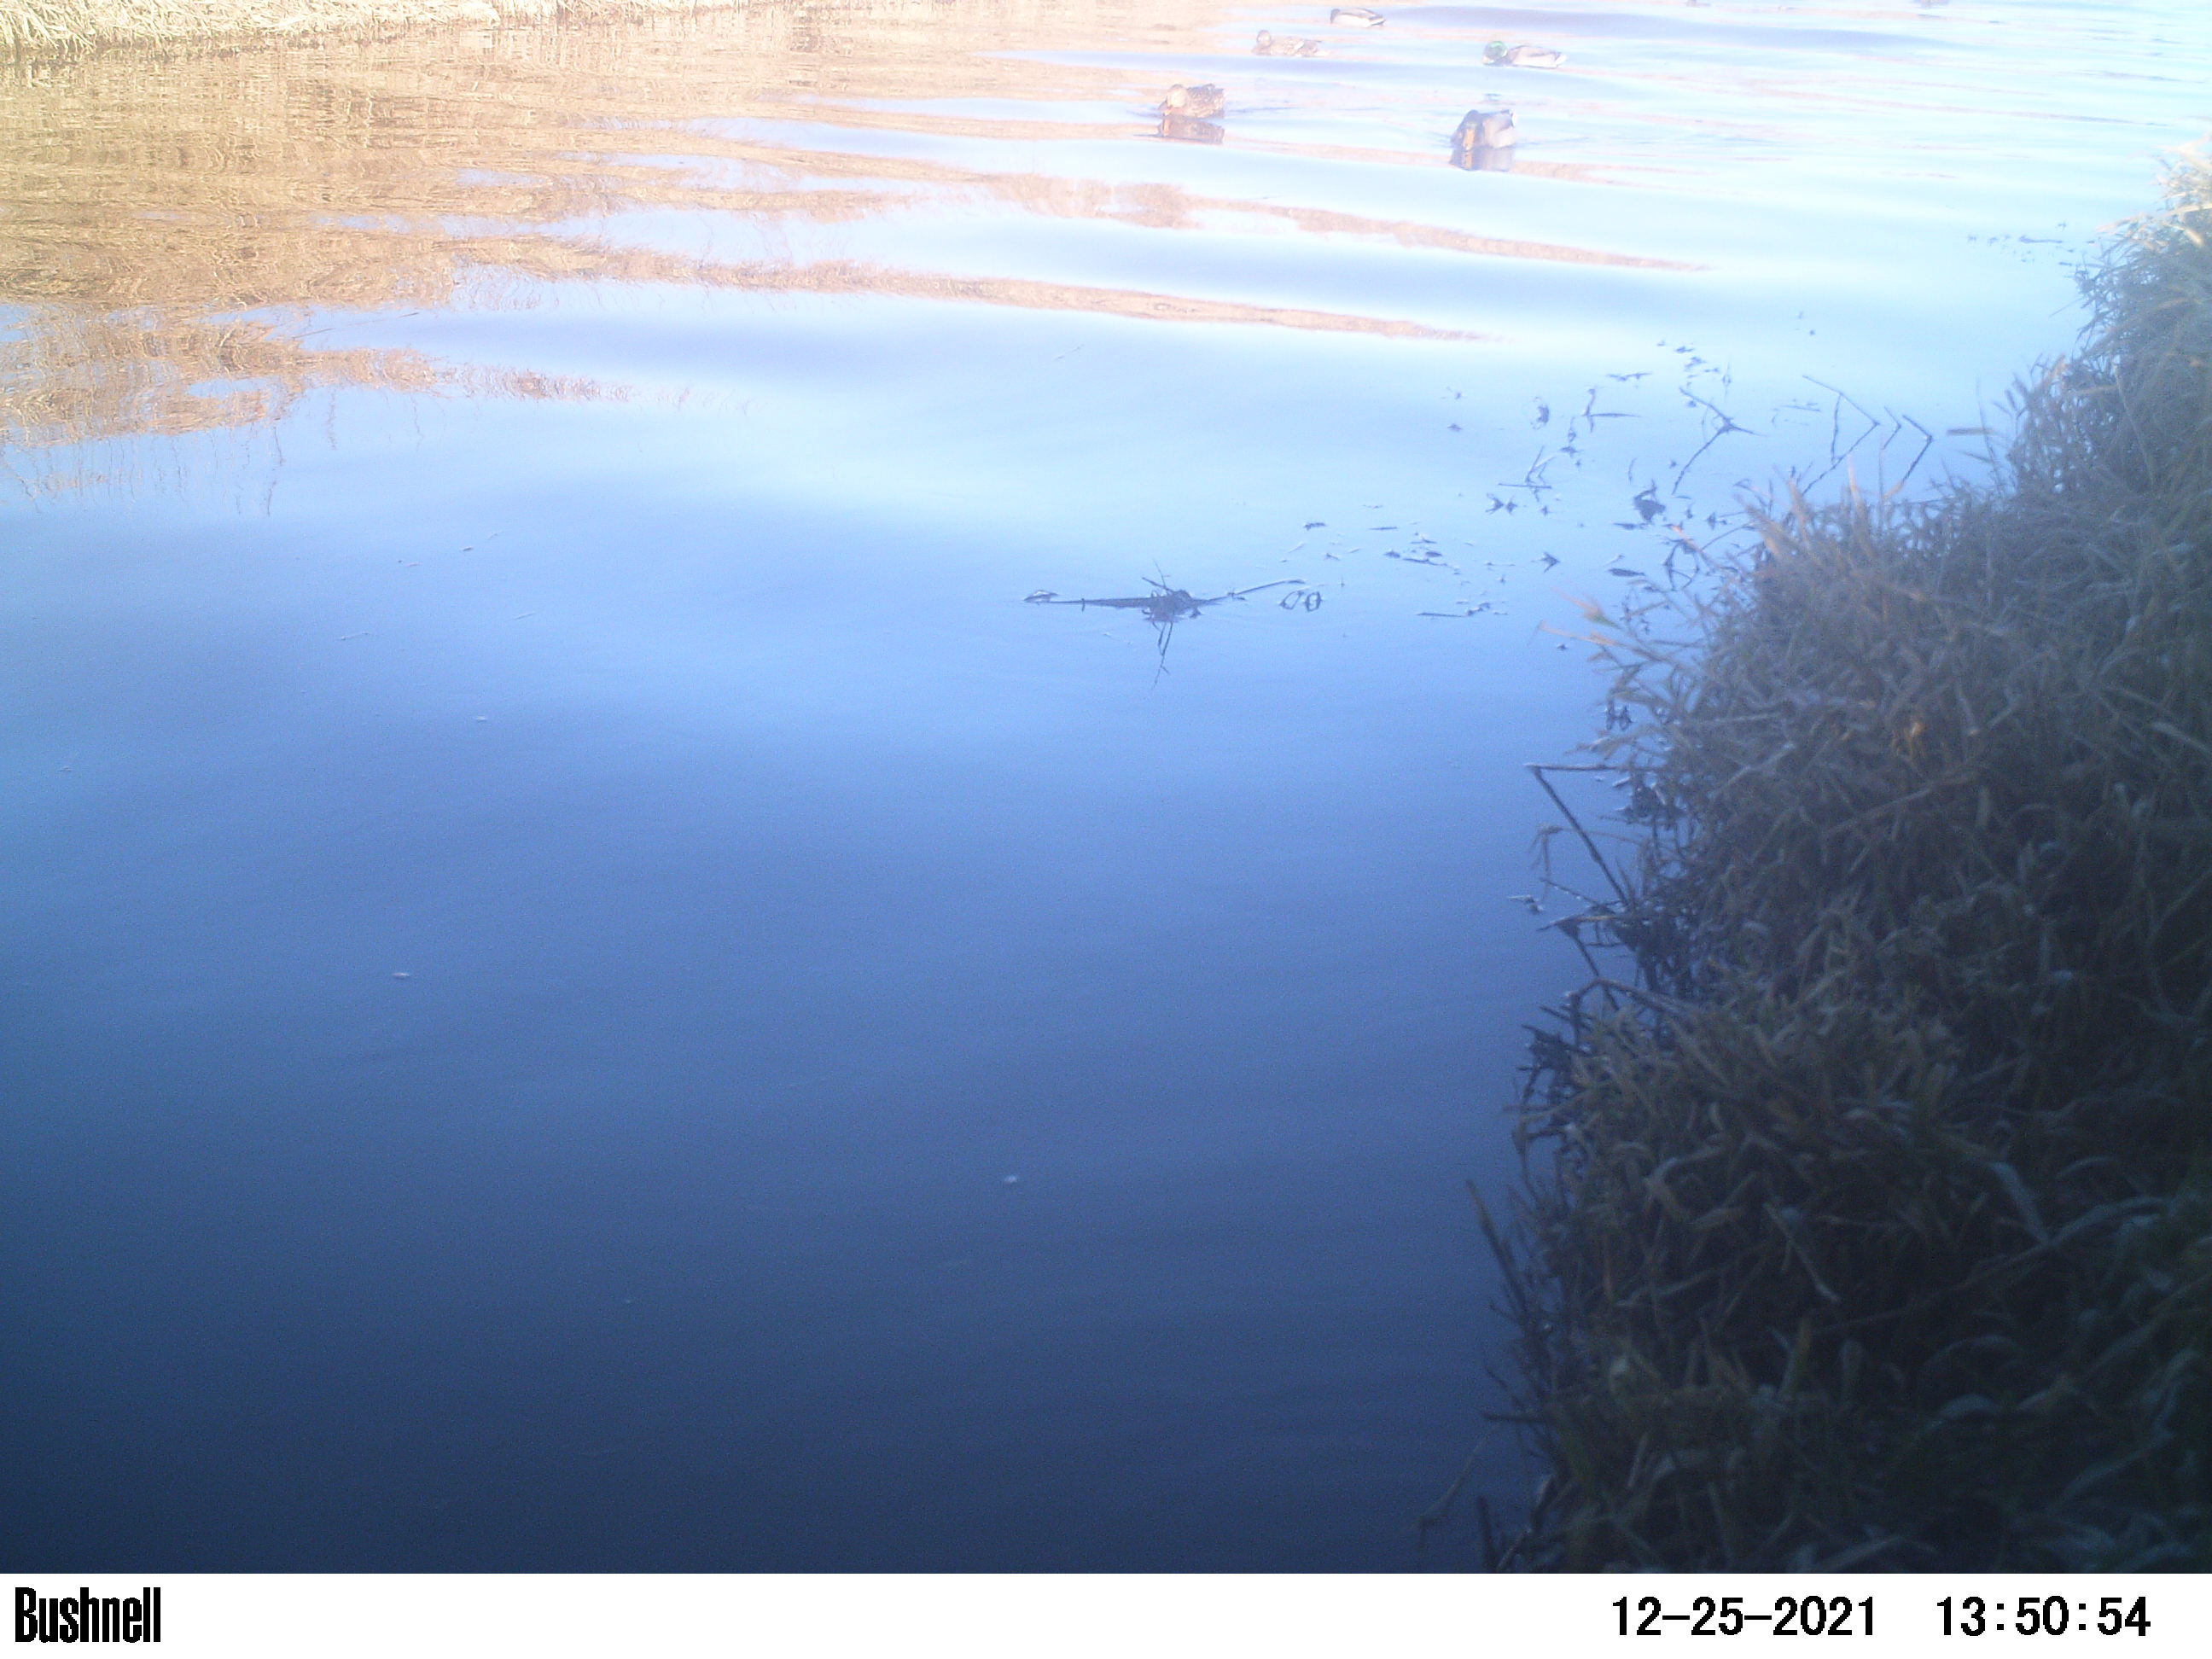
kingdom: Animalia
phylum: Chordata
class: Aves
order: Anseriformes
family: Anatidae
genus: Anas
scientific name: Anas
